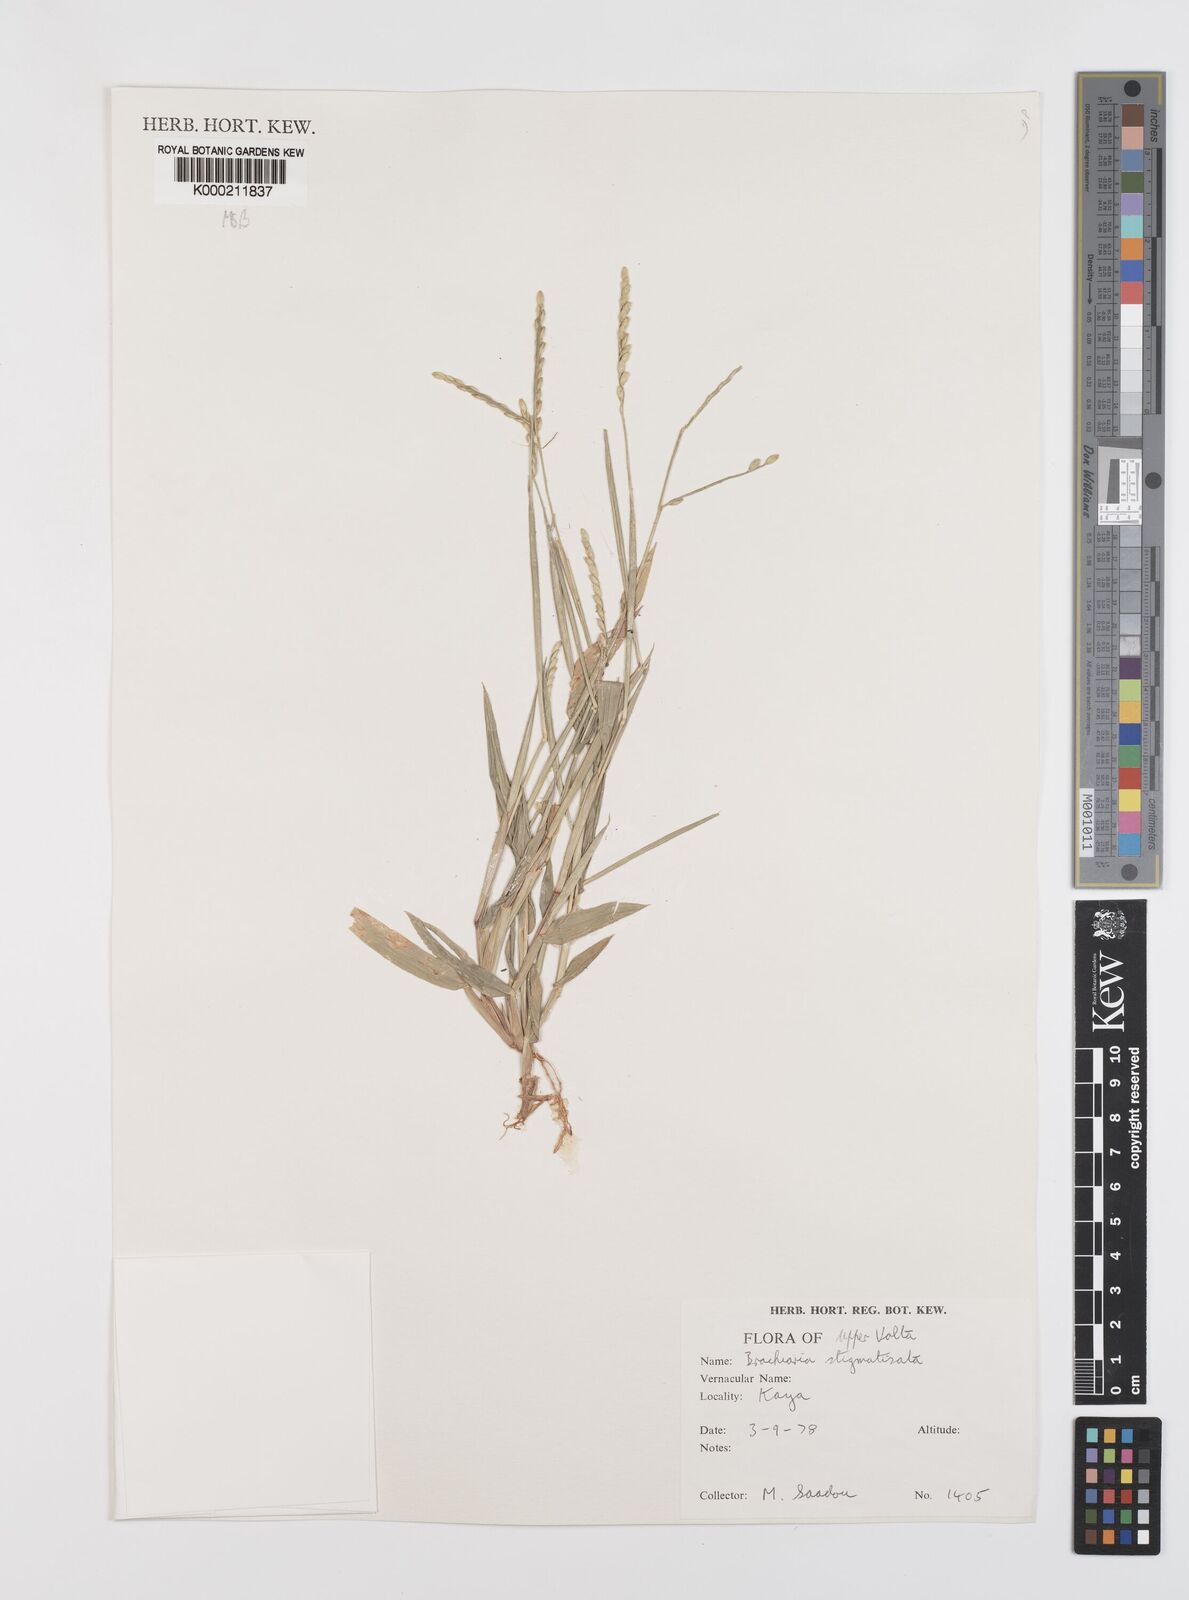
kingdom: Plantae
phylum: Tracheophyta
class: Liliopsida
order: Poales
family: Poaceae
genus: Urochloa
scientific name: Urochloa stigmatisata
